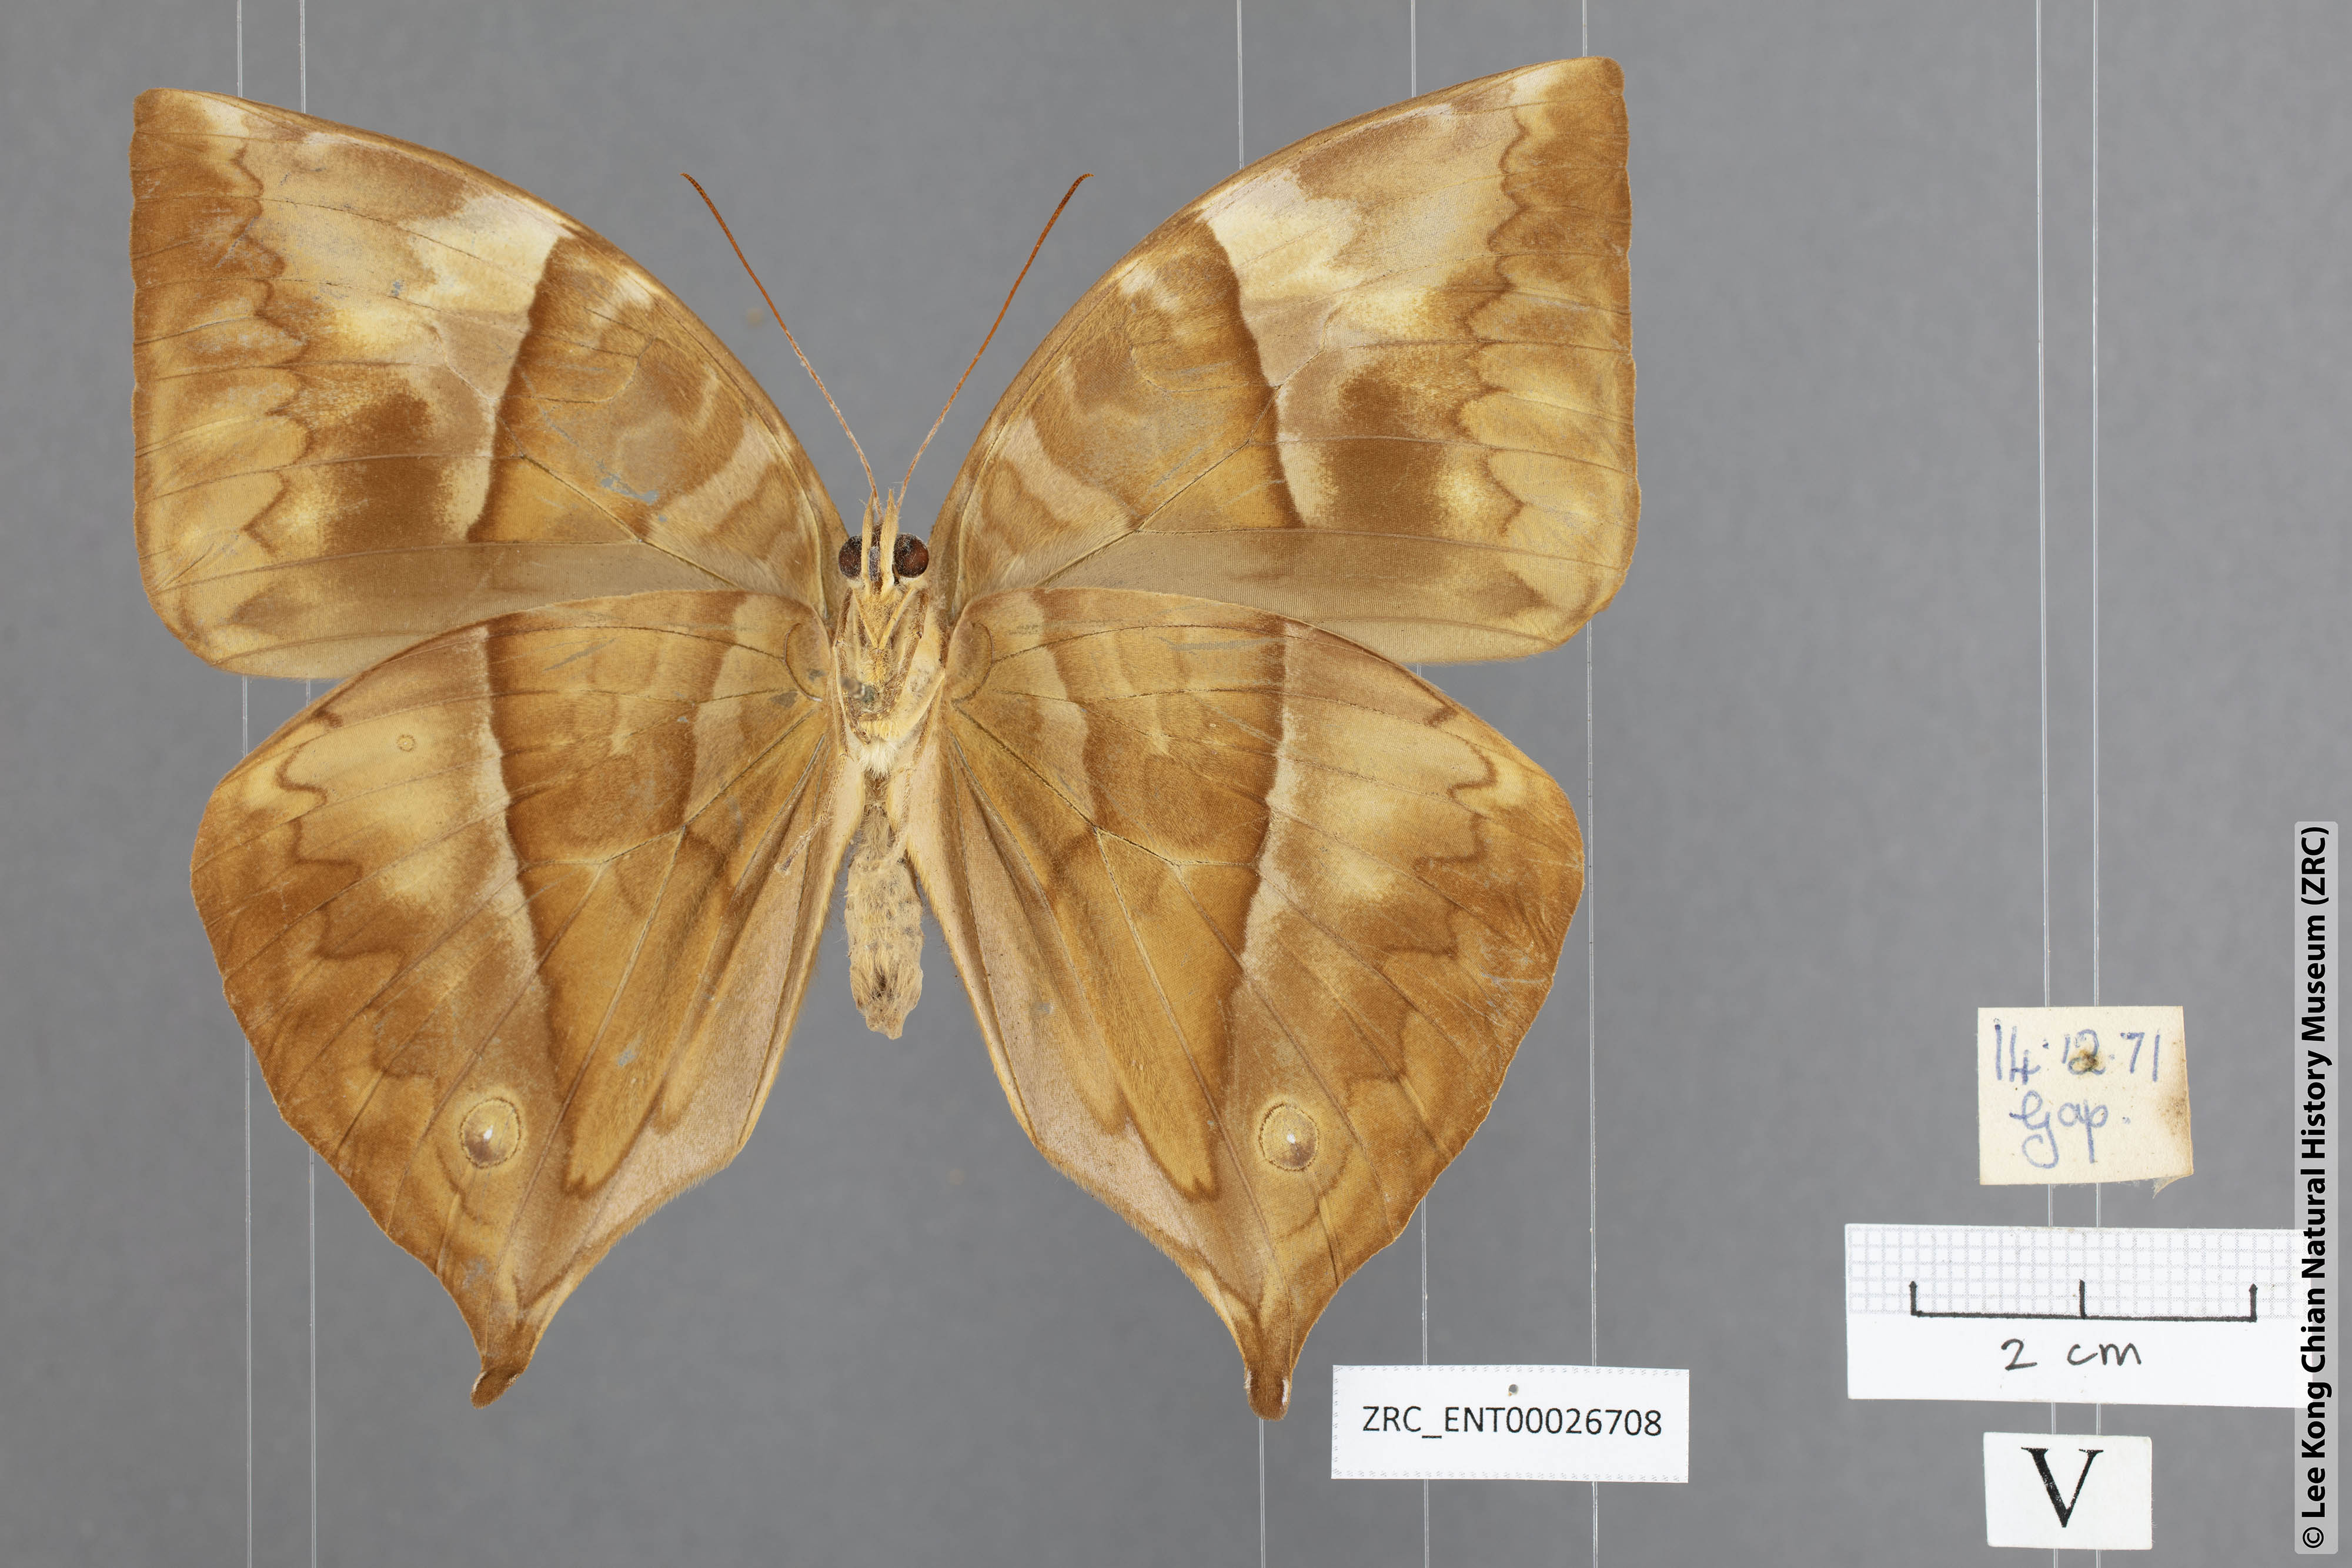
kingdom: Animalia
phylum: Arthropoda
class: Insecta
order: Lepidoptera
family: Nymphalidae
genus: Zeuxidia
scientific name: Zeuxidia ameythystus
